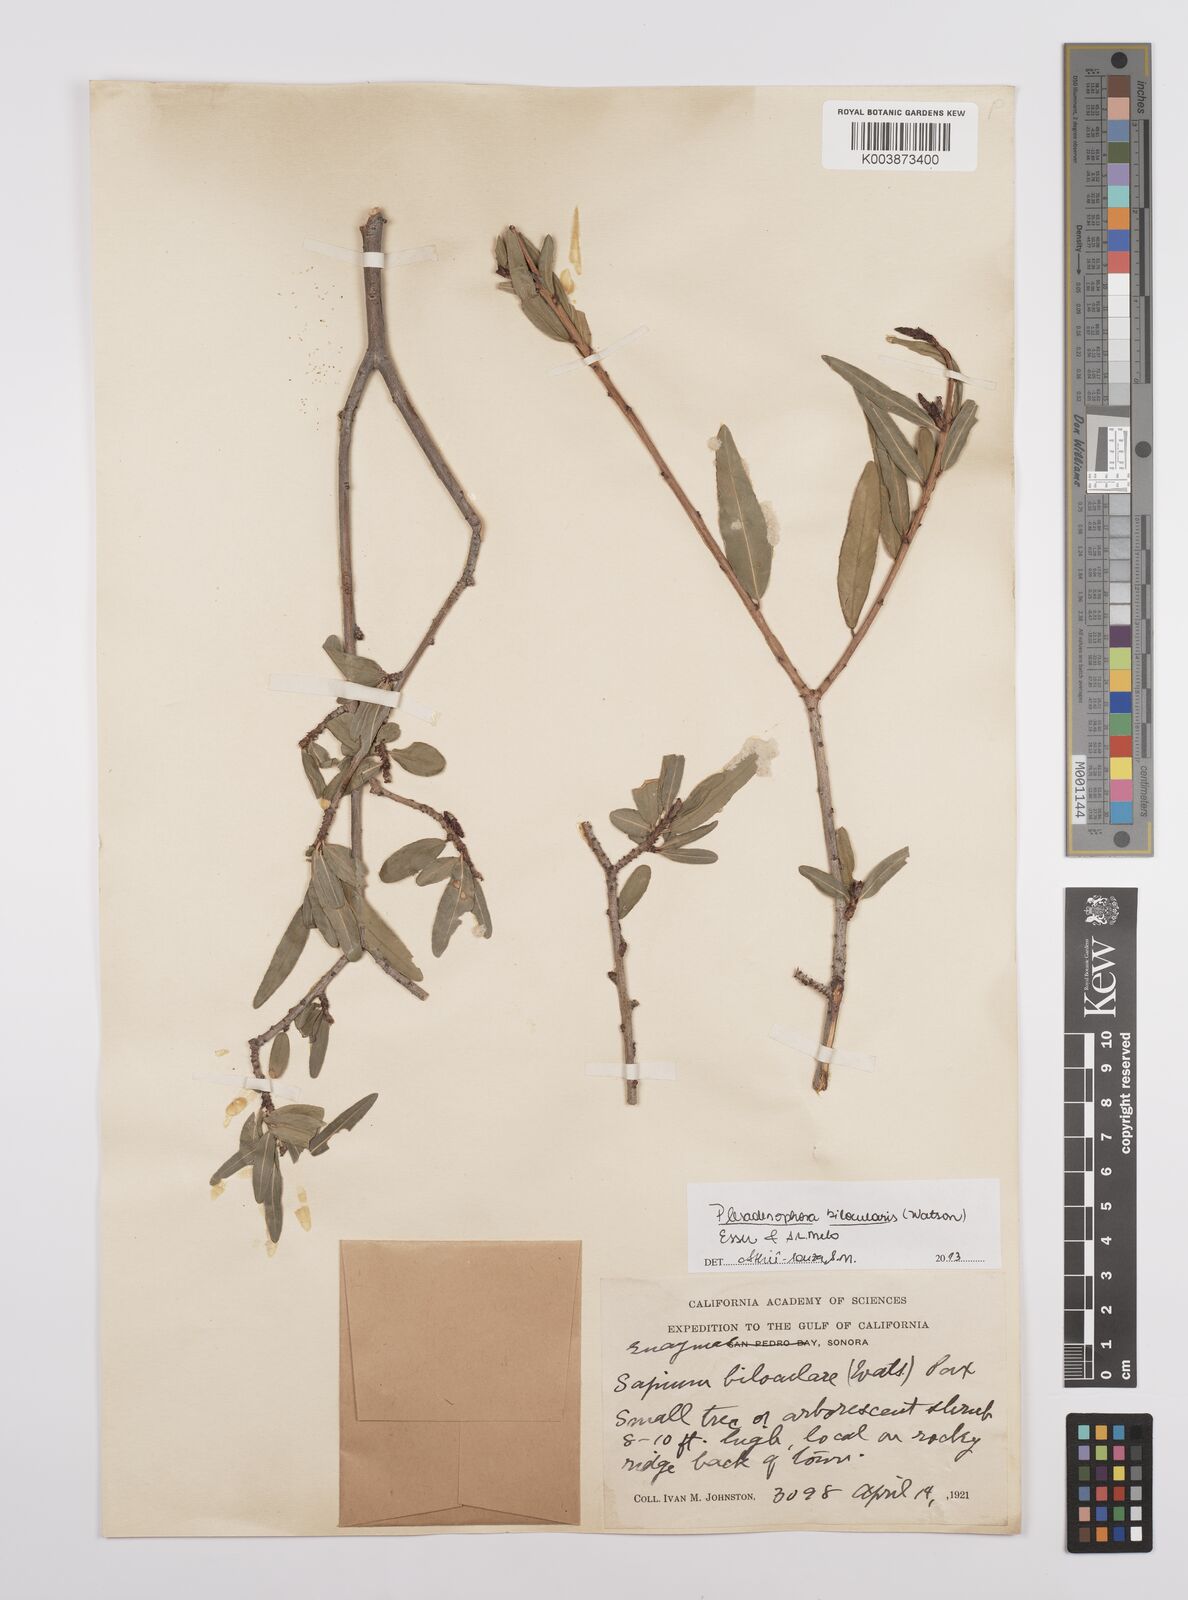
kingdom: Plantae
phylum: Tracheophyta
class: Magnoliopsida
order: Malpighiales
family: Euphorbiaceae
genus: Pleradenophora
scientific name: Pleradenophora bilocularis
